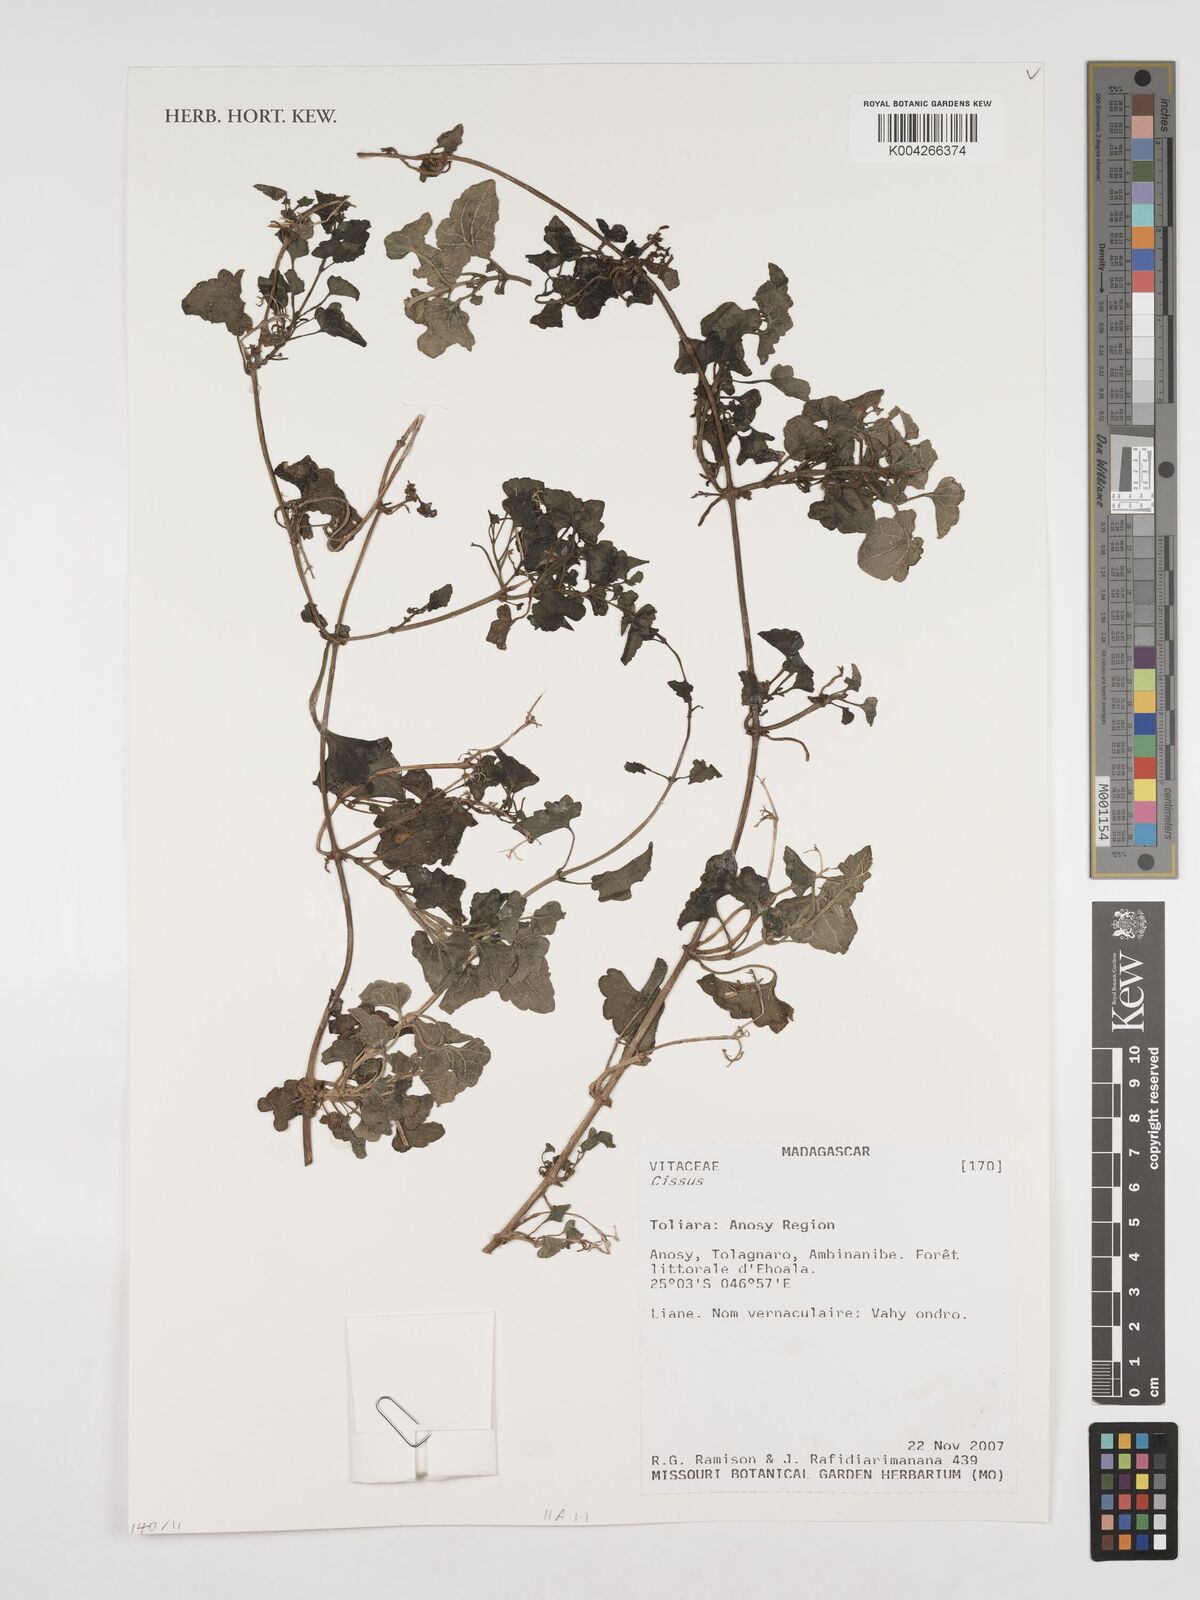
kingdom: Plantae
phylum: Tracheophyta
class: Magnoliopsida
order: Vitales
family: Vitaceae
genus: Cissus
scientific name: Cissus
